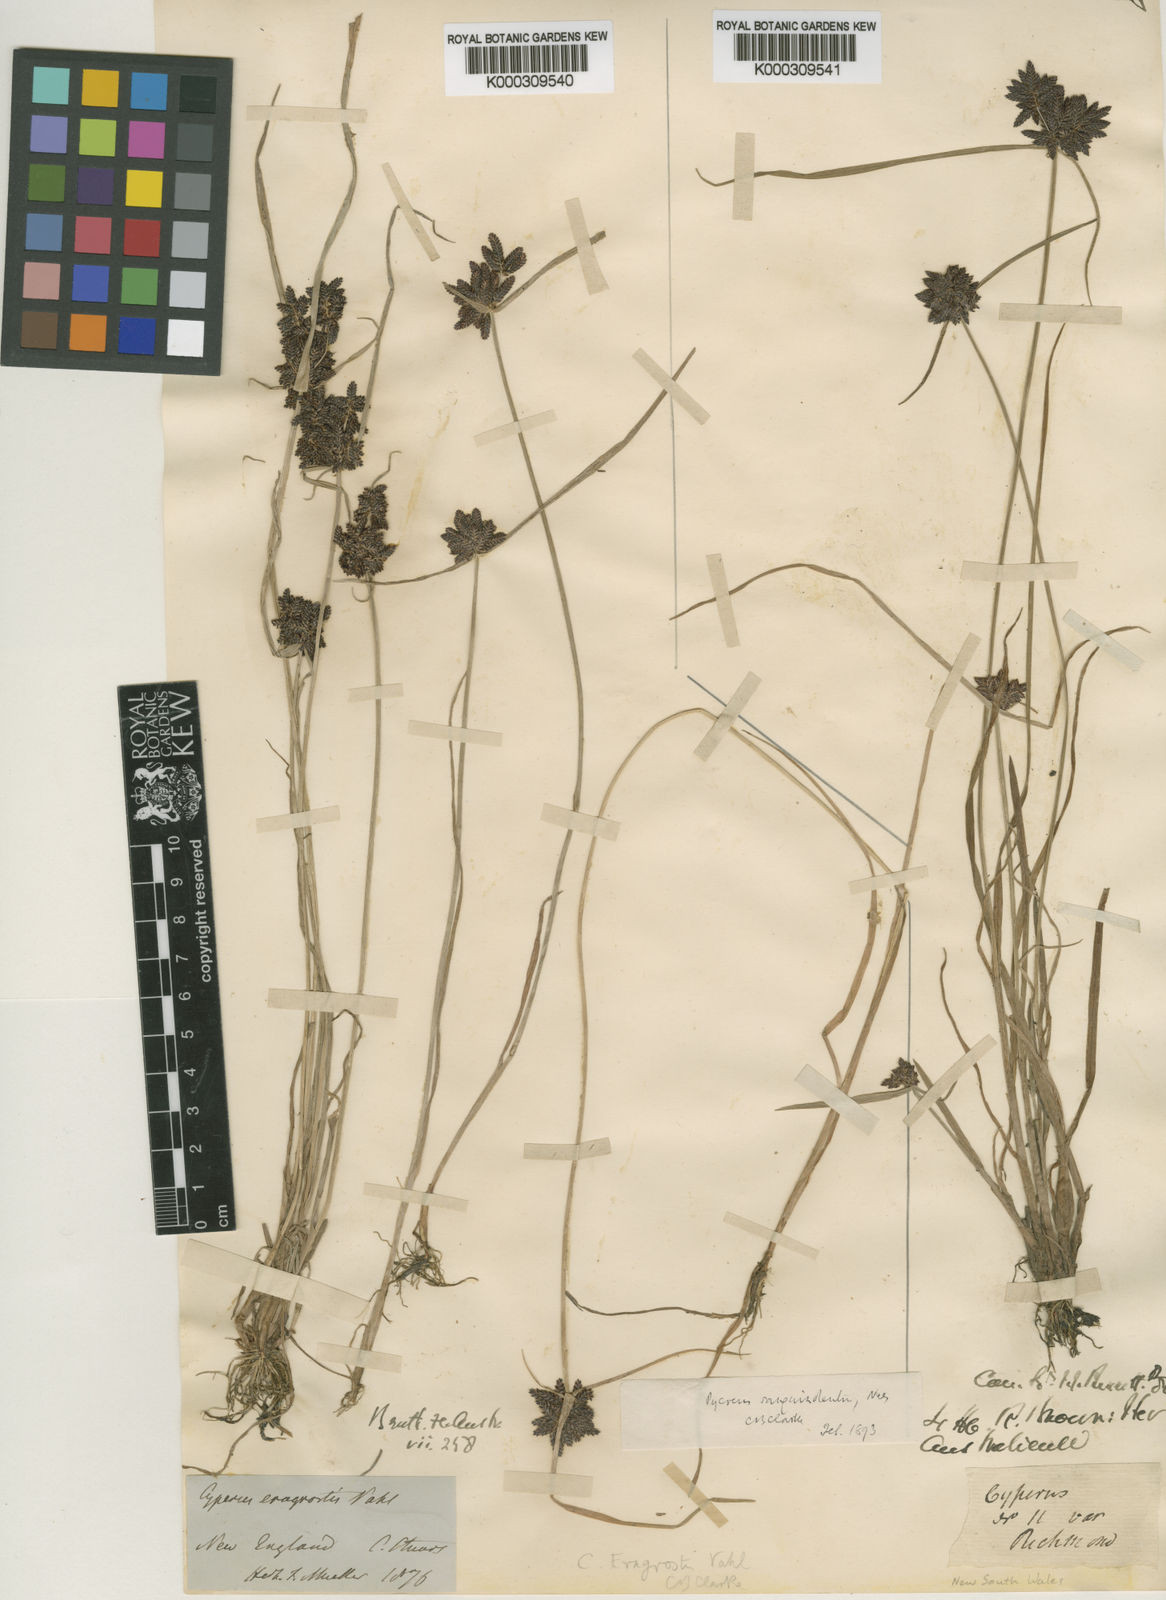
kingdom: Plantae
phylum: Tracheophyta
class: Liliopsida
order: Poales
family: Cyperaceae
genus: Cyperus
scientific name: Cyperus sanguinolentus
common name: Purpleglume flatsedge
